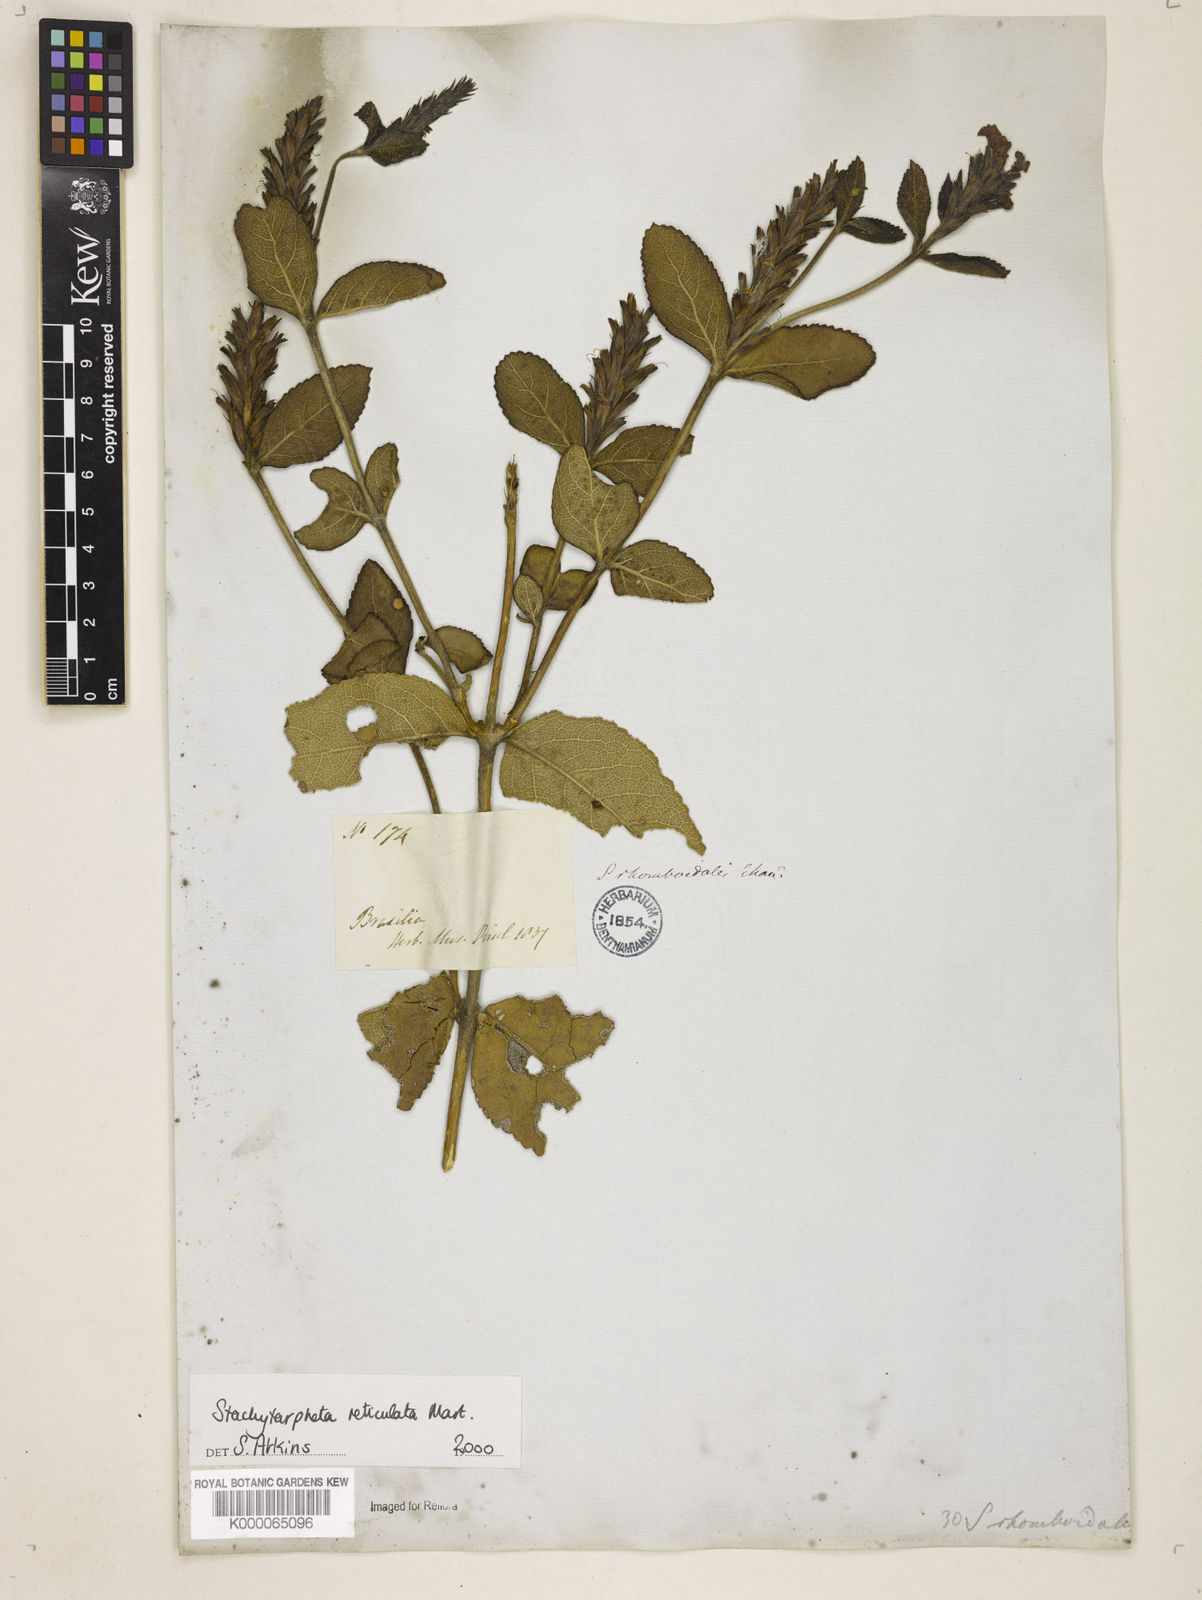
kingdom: Plantae
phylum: Tracheophyta
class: Magnoliopsida
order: Lamiales
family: Verbenaceae
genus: Stachytarpheta
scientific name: Stachytarpheta
